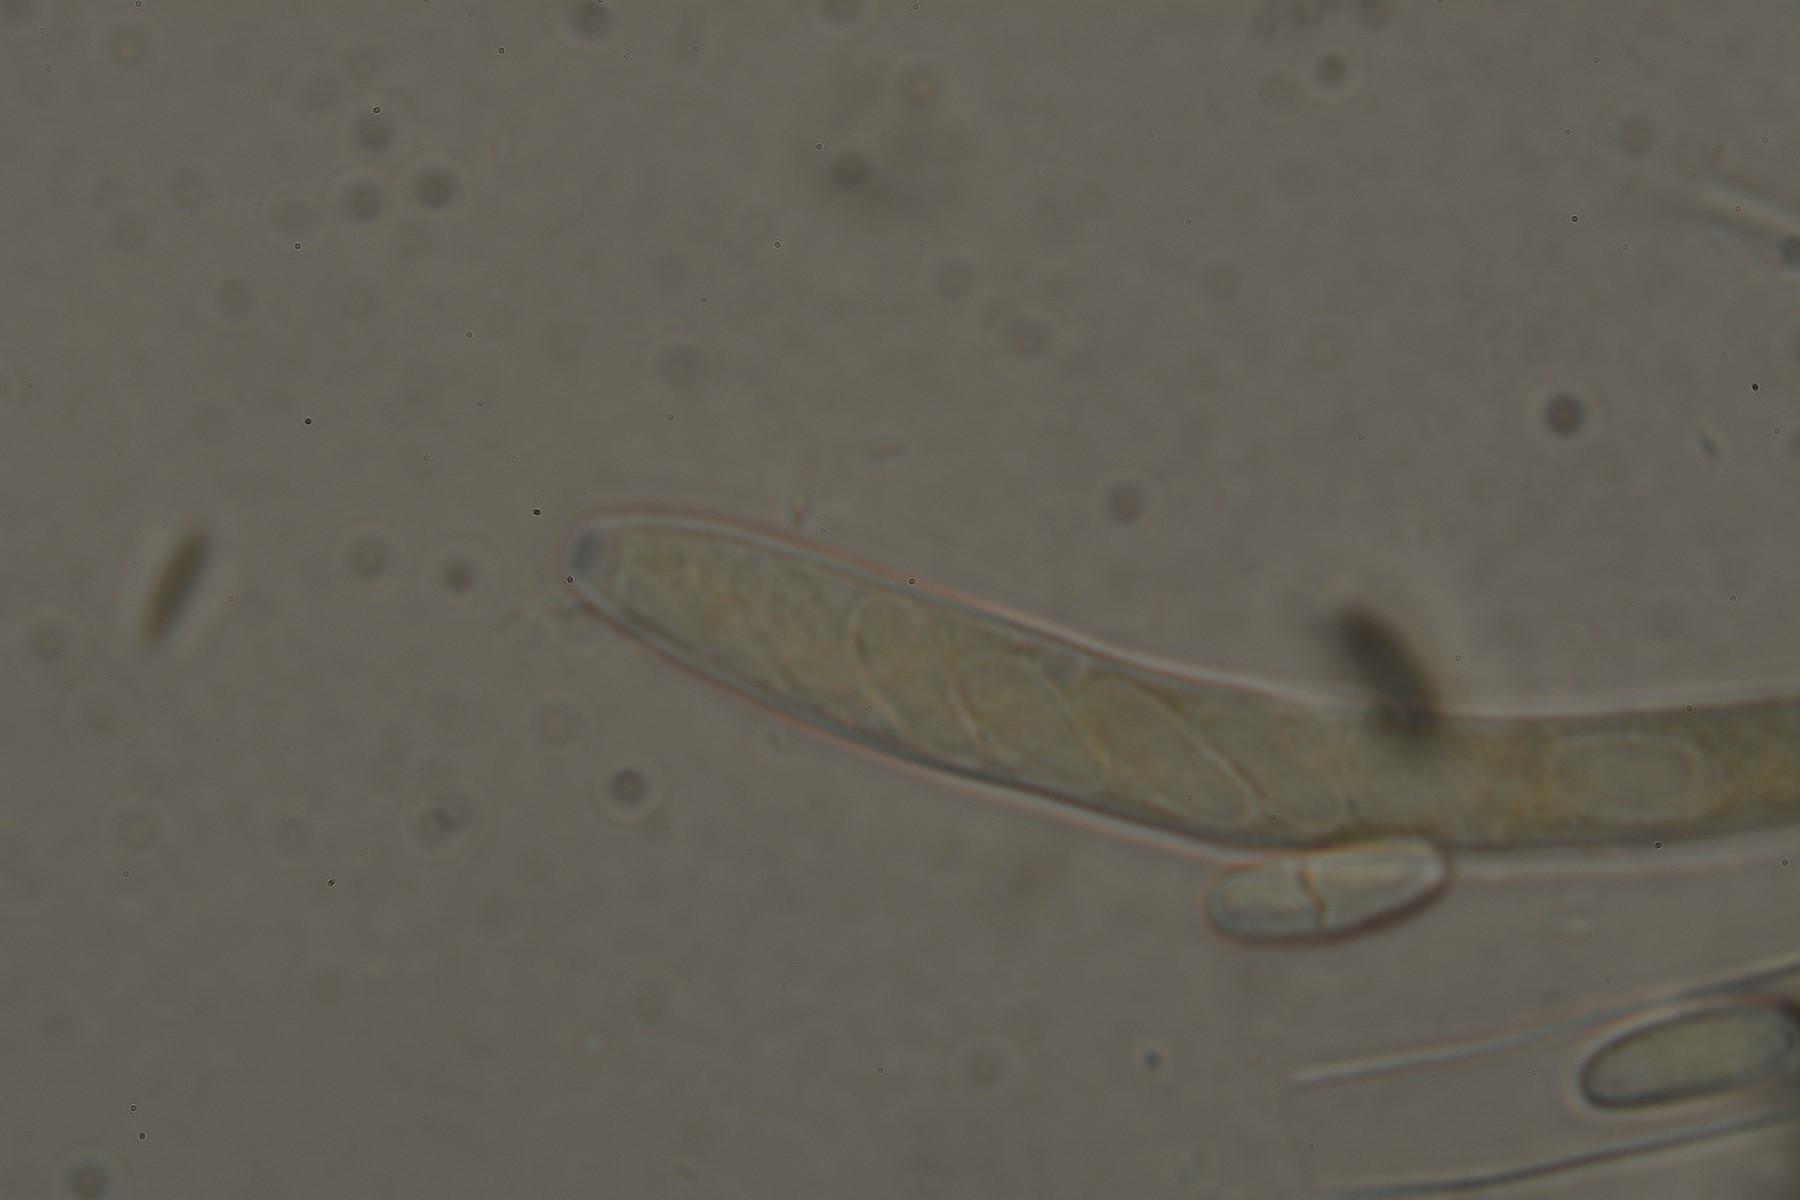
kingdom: Fungi
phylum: Ascomycota
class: Leotiomycetes
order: Helotiales
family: Pezizellaceae
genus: Calycina
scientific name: Calycina citrina
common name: almindelig gulskive
